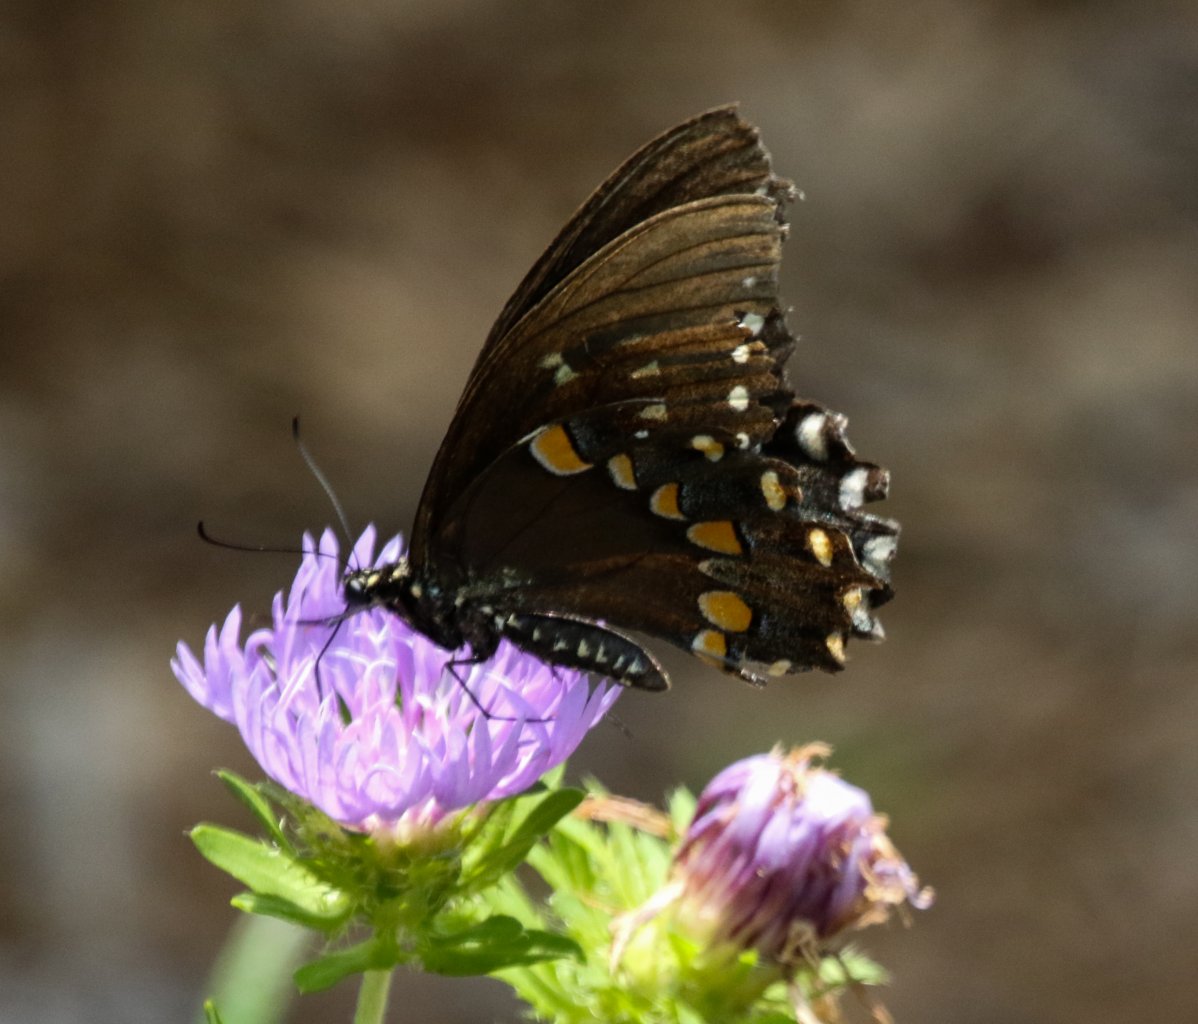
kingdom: Animalia
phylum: Arthropoda
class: Insecta
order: Lepidoptera
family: Papilionidae
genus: Pterourus
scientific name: Pterourus troilus
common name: Spicebush Swallowtail
